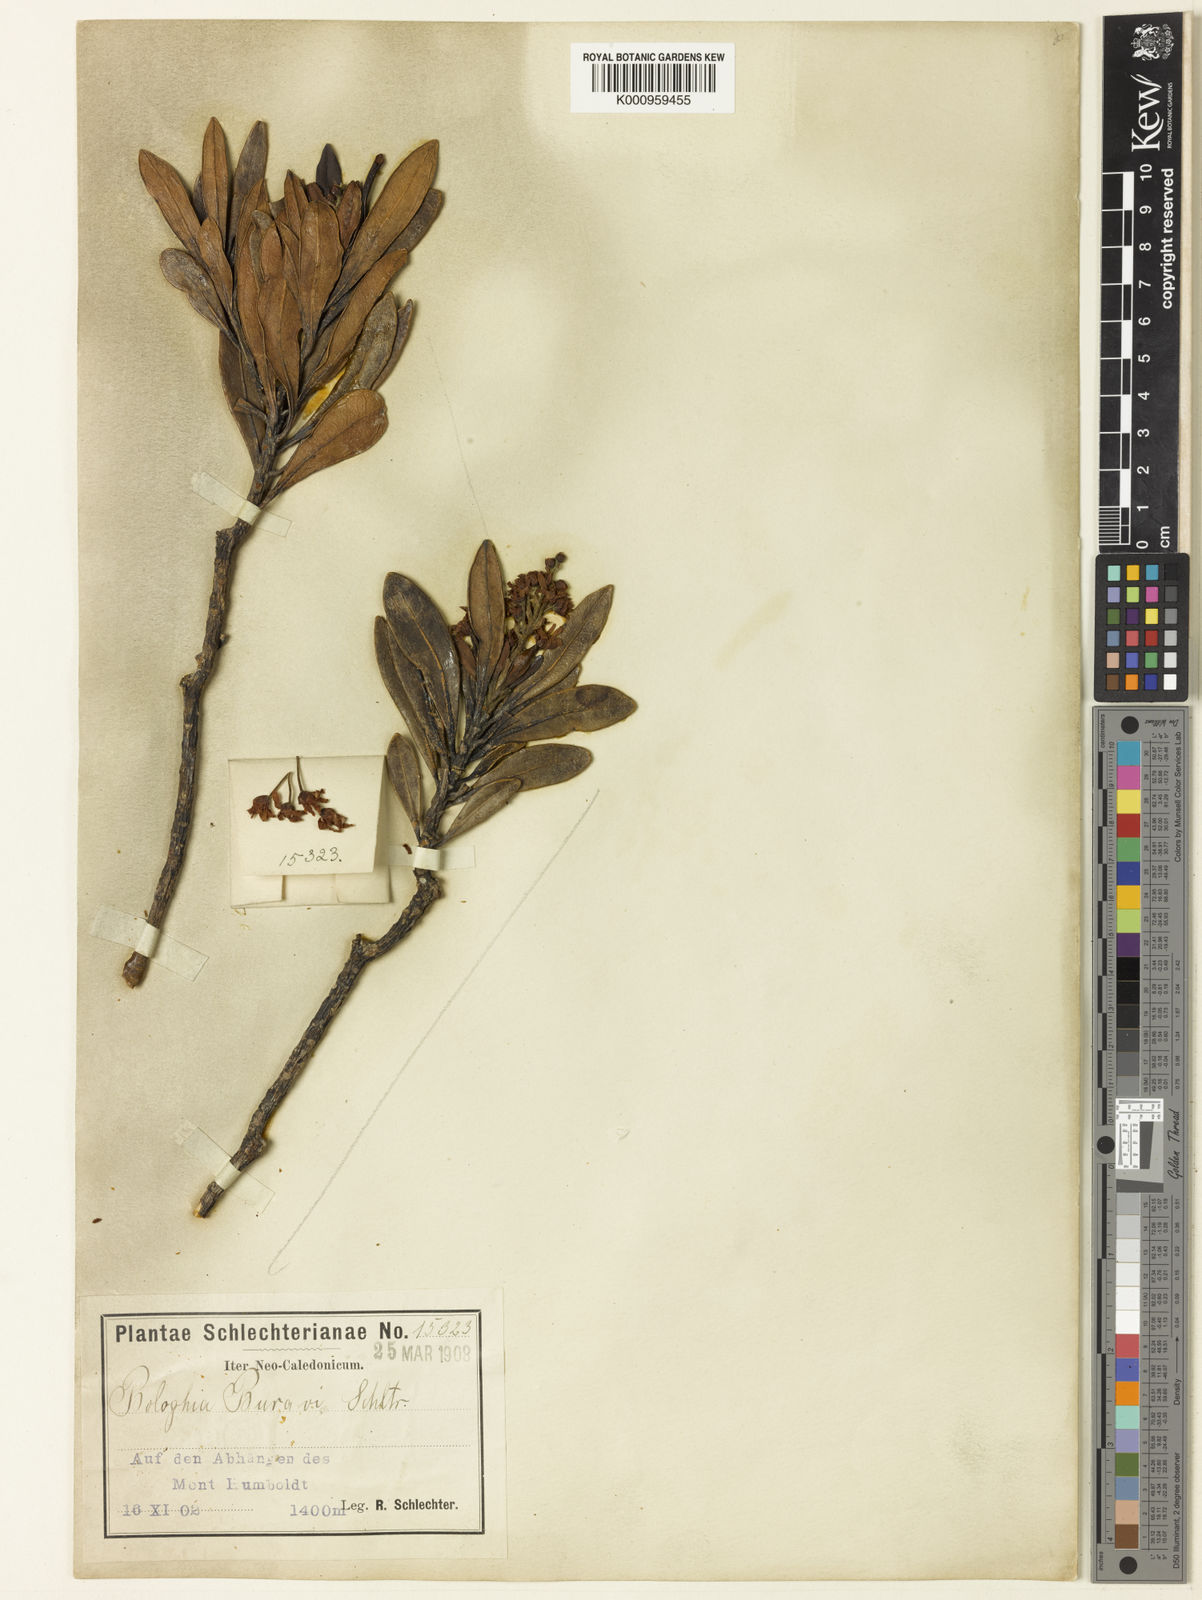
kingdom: Plantae
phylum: Tracheophyta
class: Magnoliopsida
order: Malpighiales
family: Euphorbiaceae
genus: Baloghia
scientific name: Baloghia bureavii
